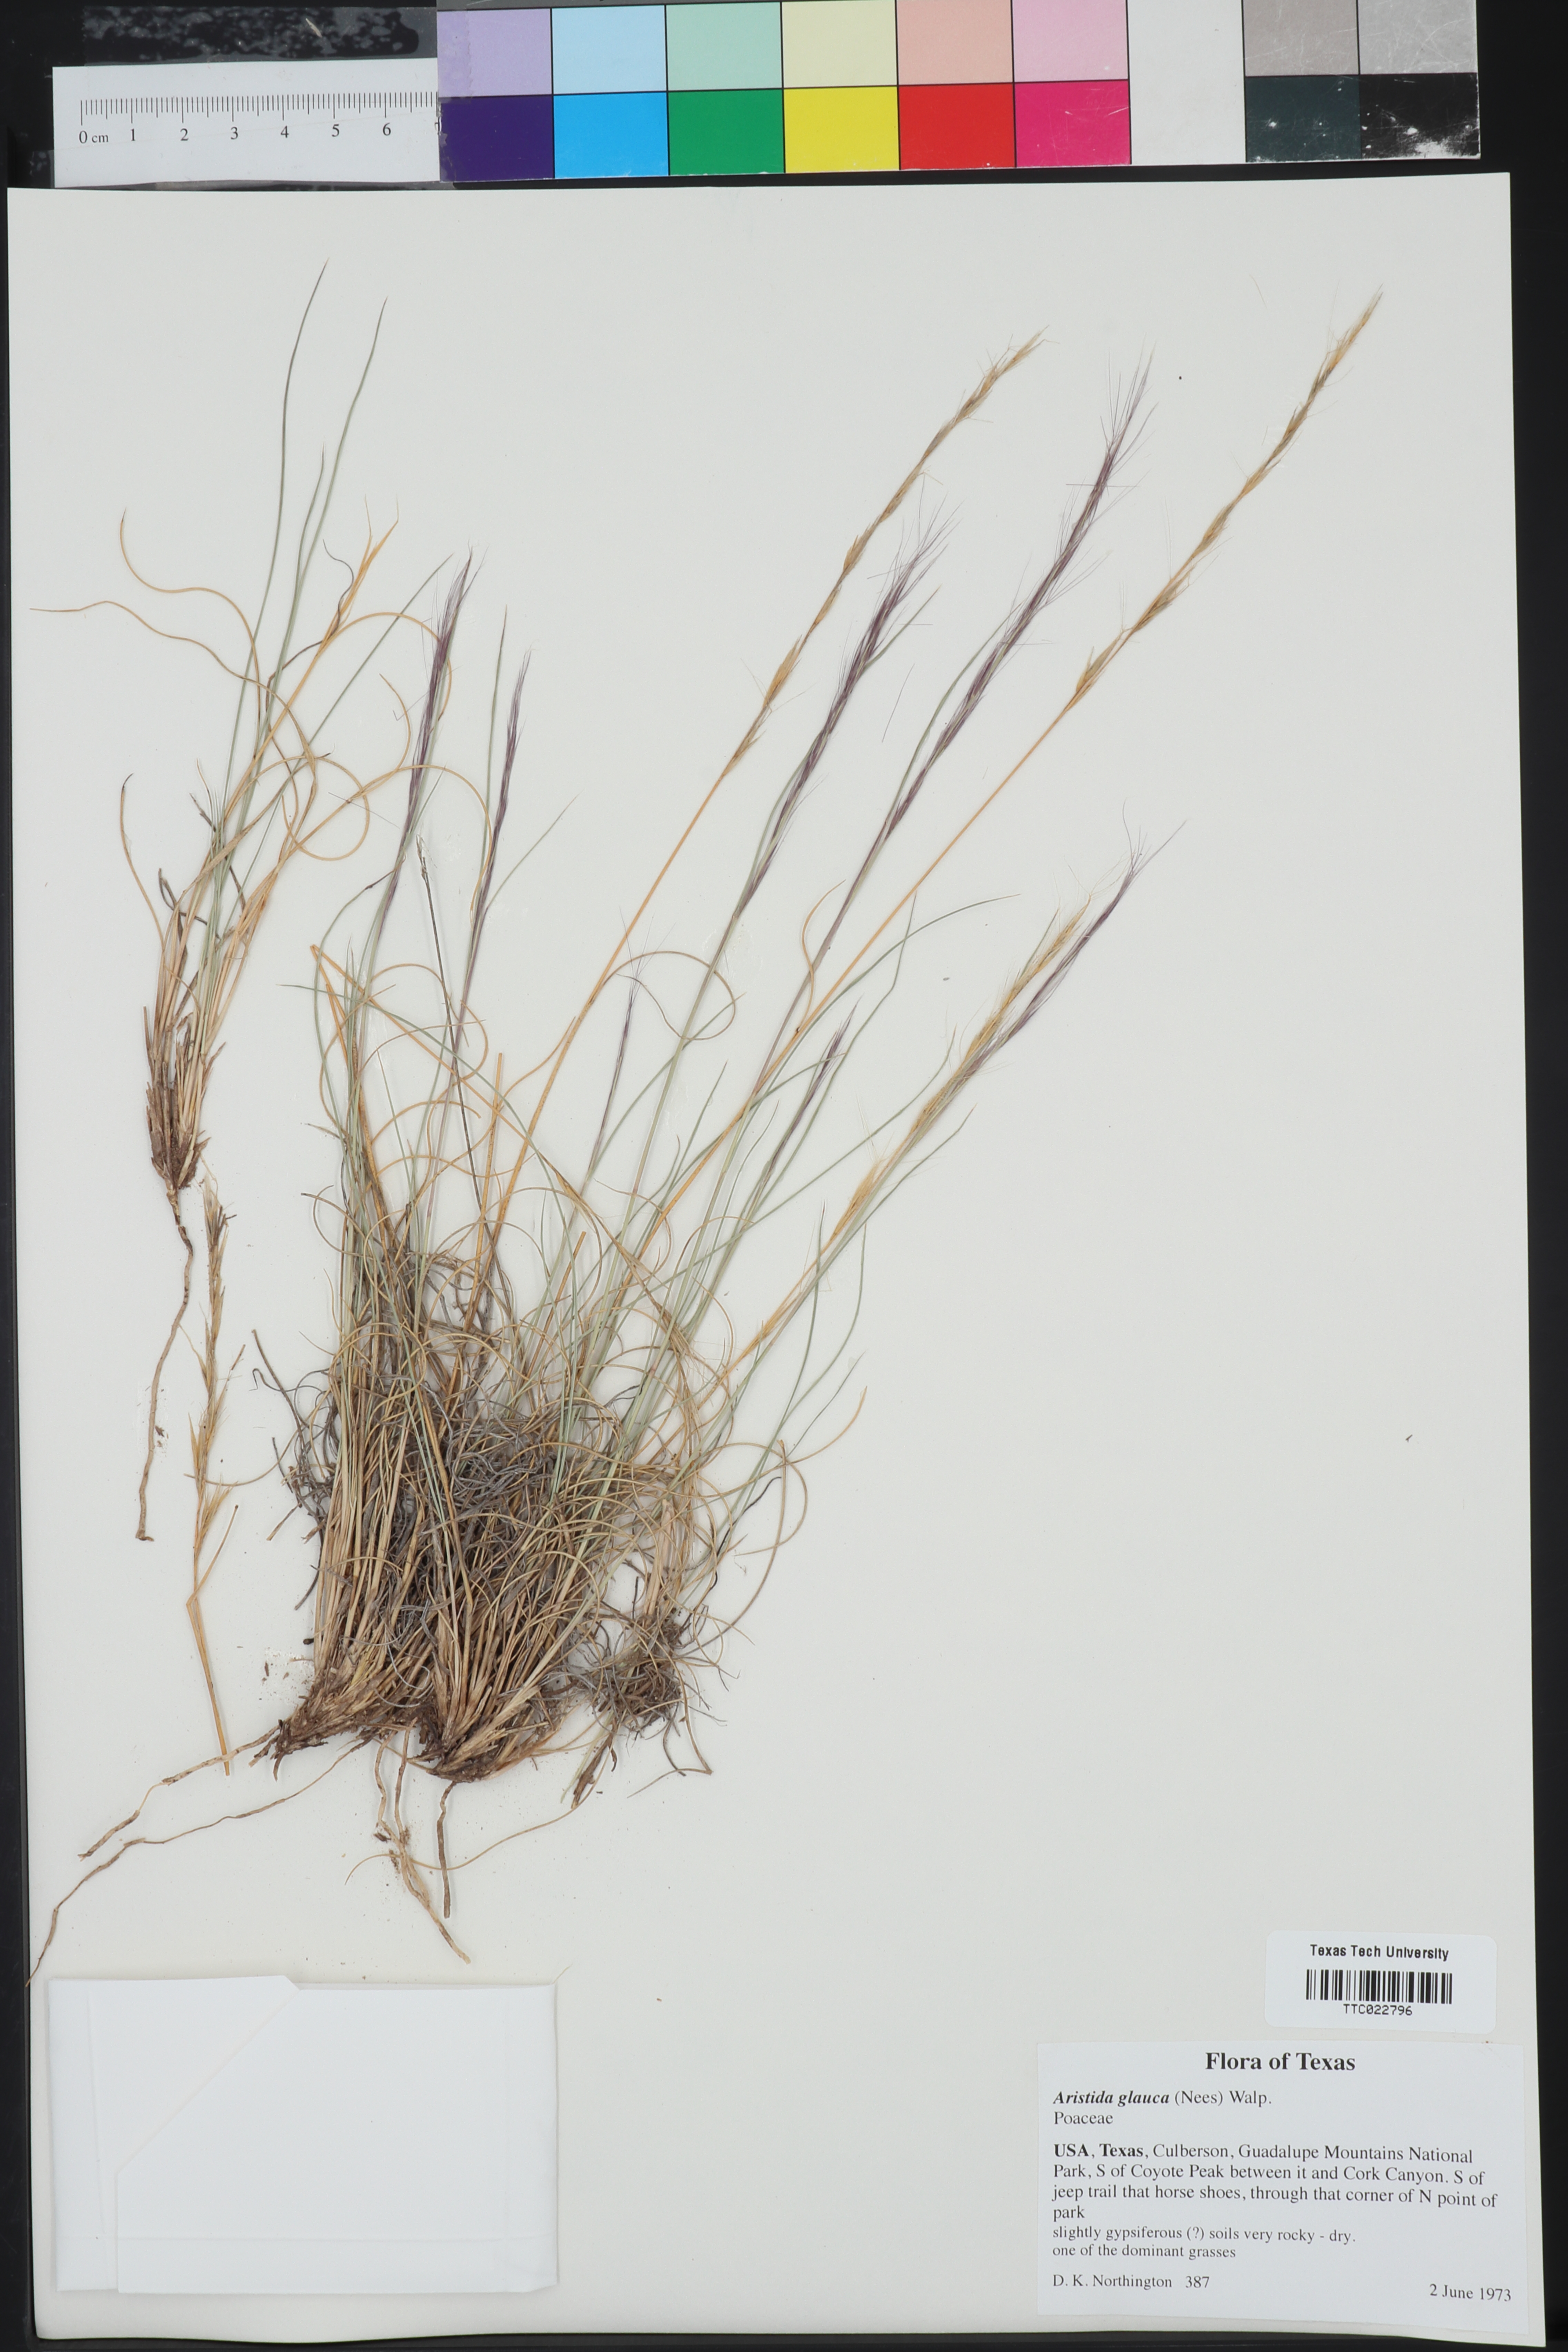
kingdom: Plantae
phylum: Tracheophyta
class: Liliopsida
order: Poales
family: Poaceae
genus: Aristida
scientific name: Aristida glauca
